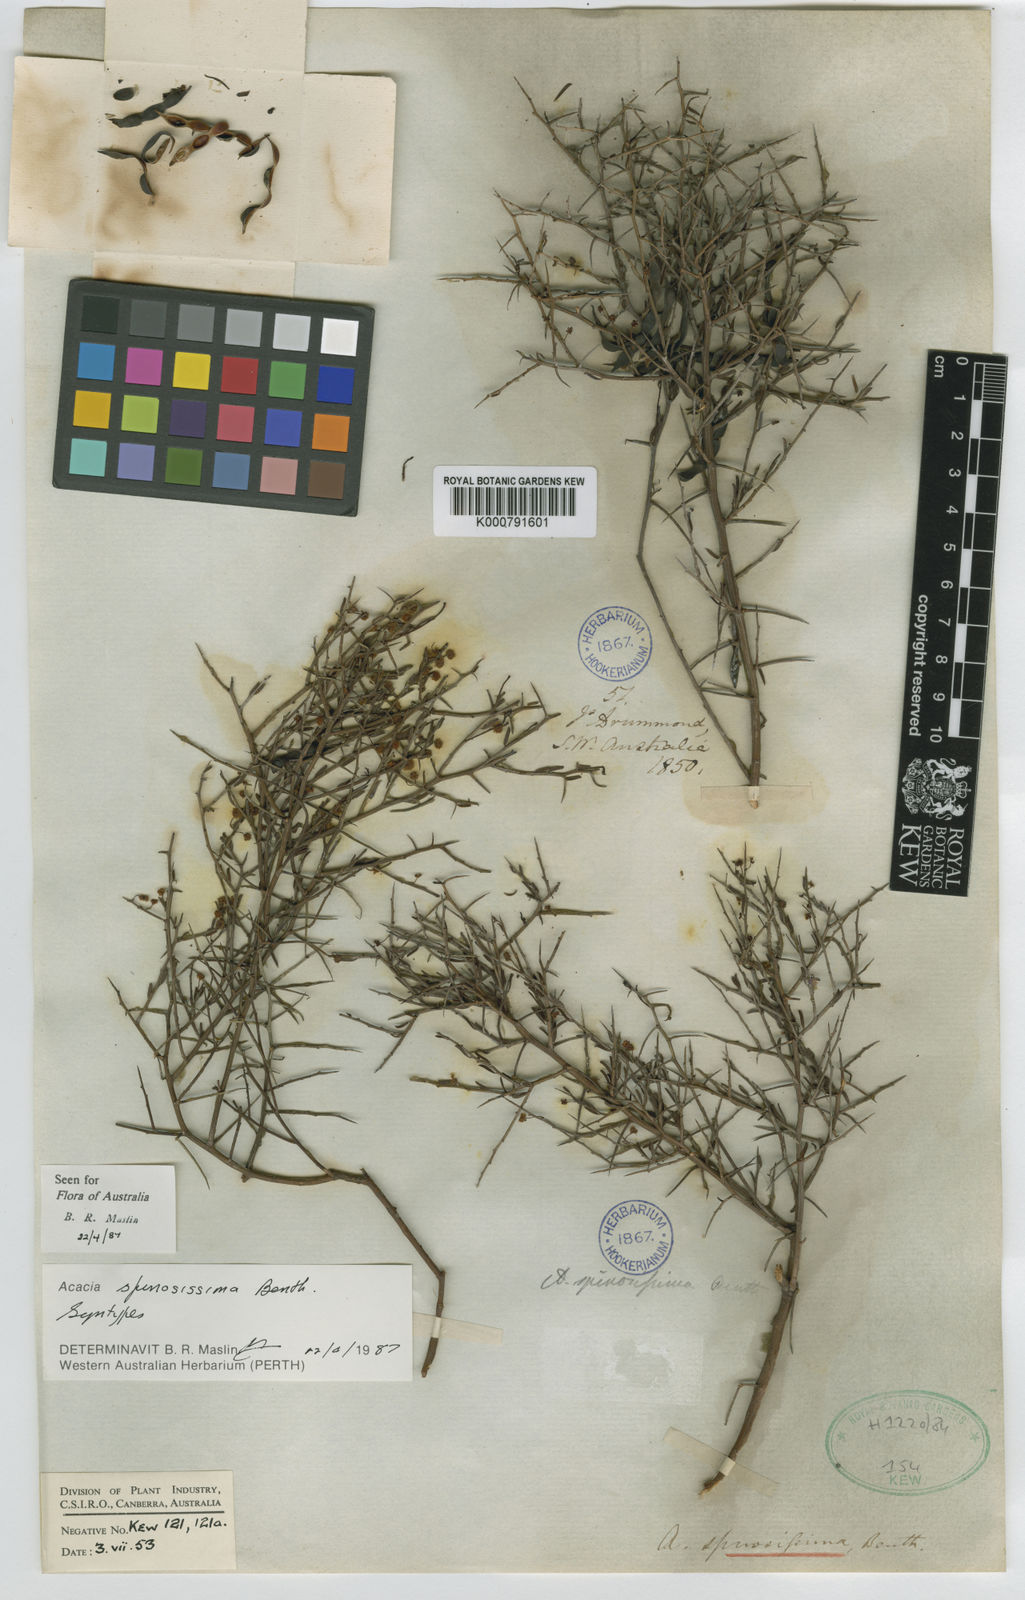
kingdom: Plantae
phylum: Tracheophyta
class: Magnoliopsida
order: Fabales
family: Fabaceae
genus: Acacia
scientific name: Acacia
